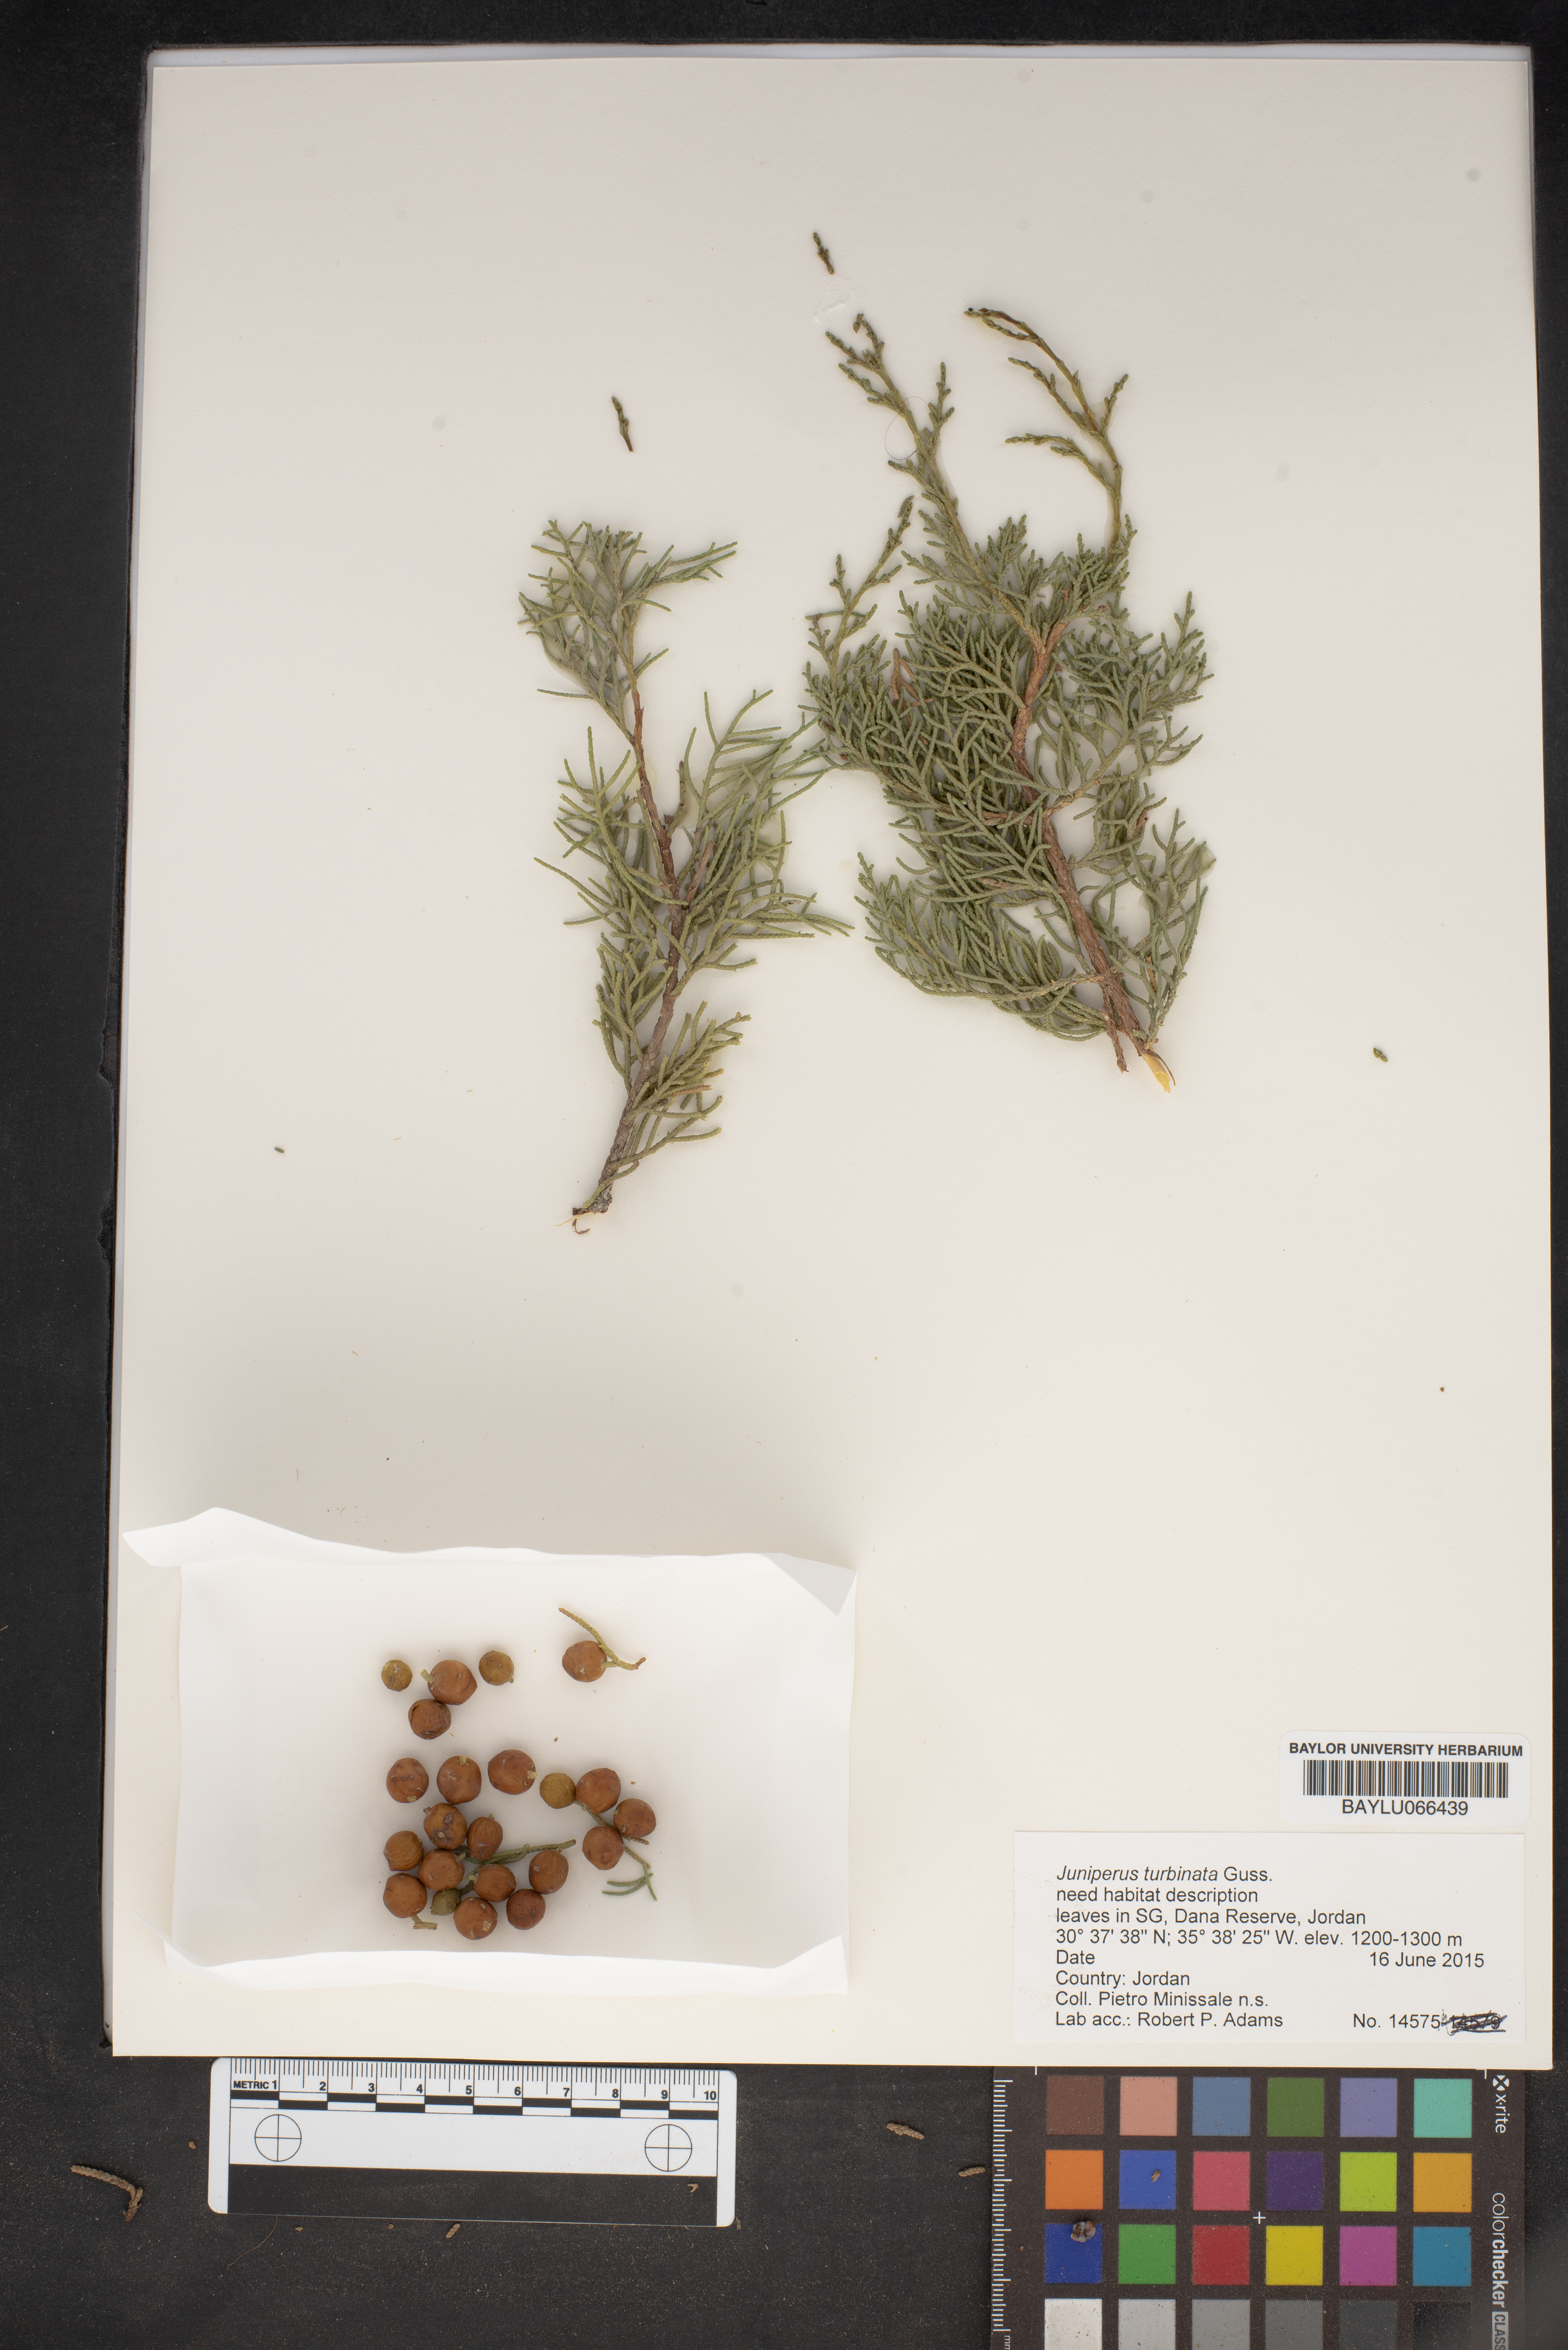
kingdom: Plantae
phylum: Tracheophyta
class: Pinopsida
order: Pinales
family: Cupressaceae
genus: Juniperus
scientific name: Juniperus phoenicea
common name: Phoenician juniper
